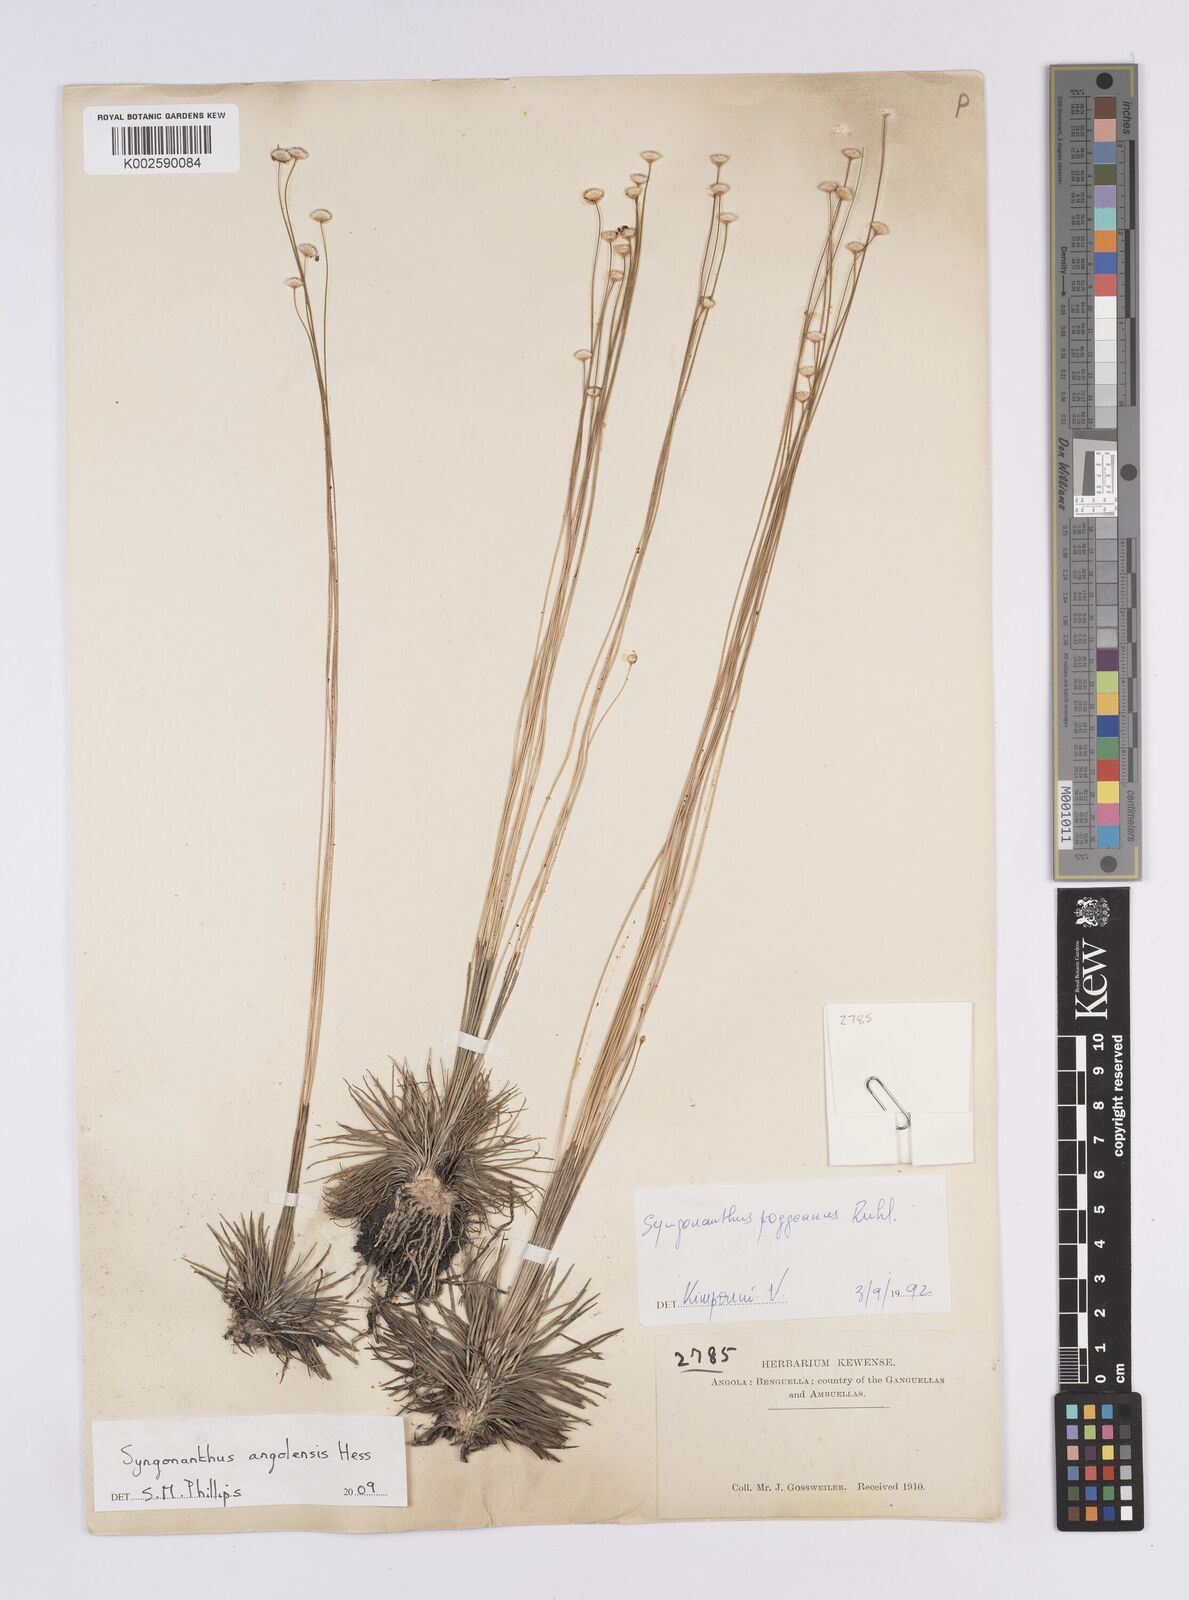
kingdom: Plantae
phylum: Tracheophyta
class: Liliopsida
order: Poales
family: Eriocaulaceae
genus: Syngonanthus
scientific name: Syngonanthus angolensis
